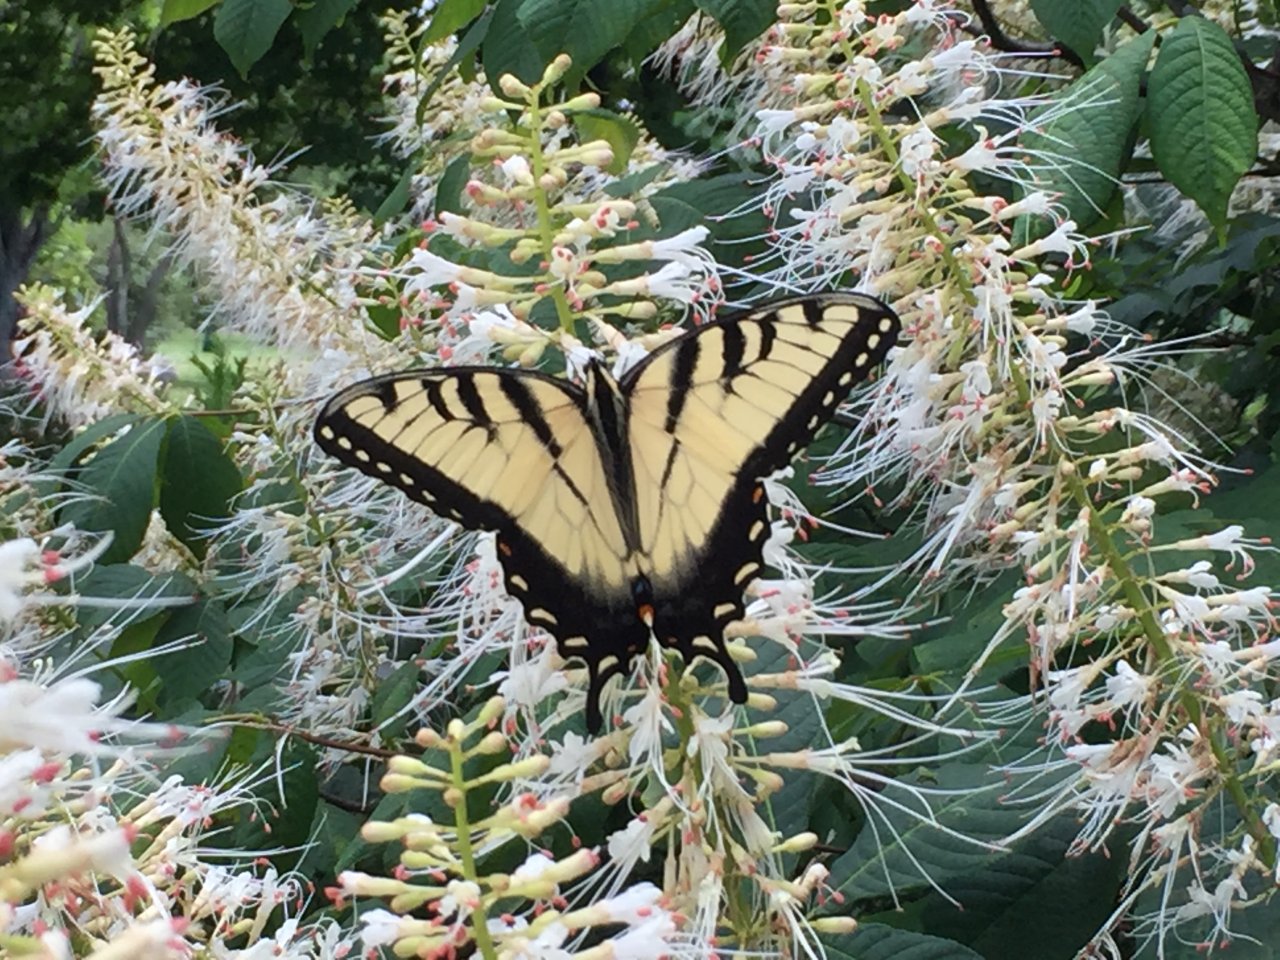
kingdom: Animalia
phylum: Arthropoda
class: Insecta
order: Lepidoptera
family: Papilionidae
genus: Pterourus
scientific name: Pterourus glaucus
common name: Eastern Tiger Swallowtail
